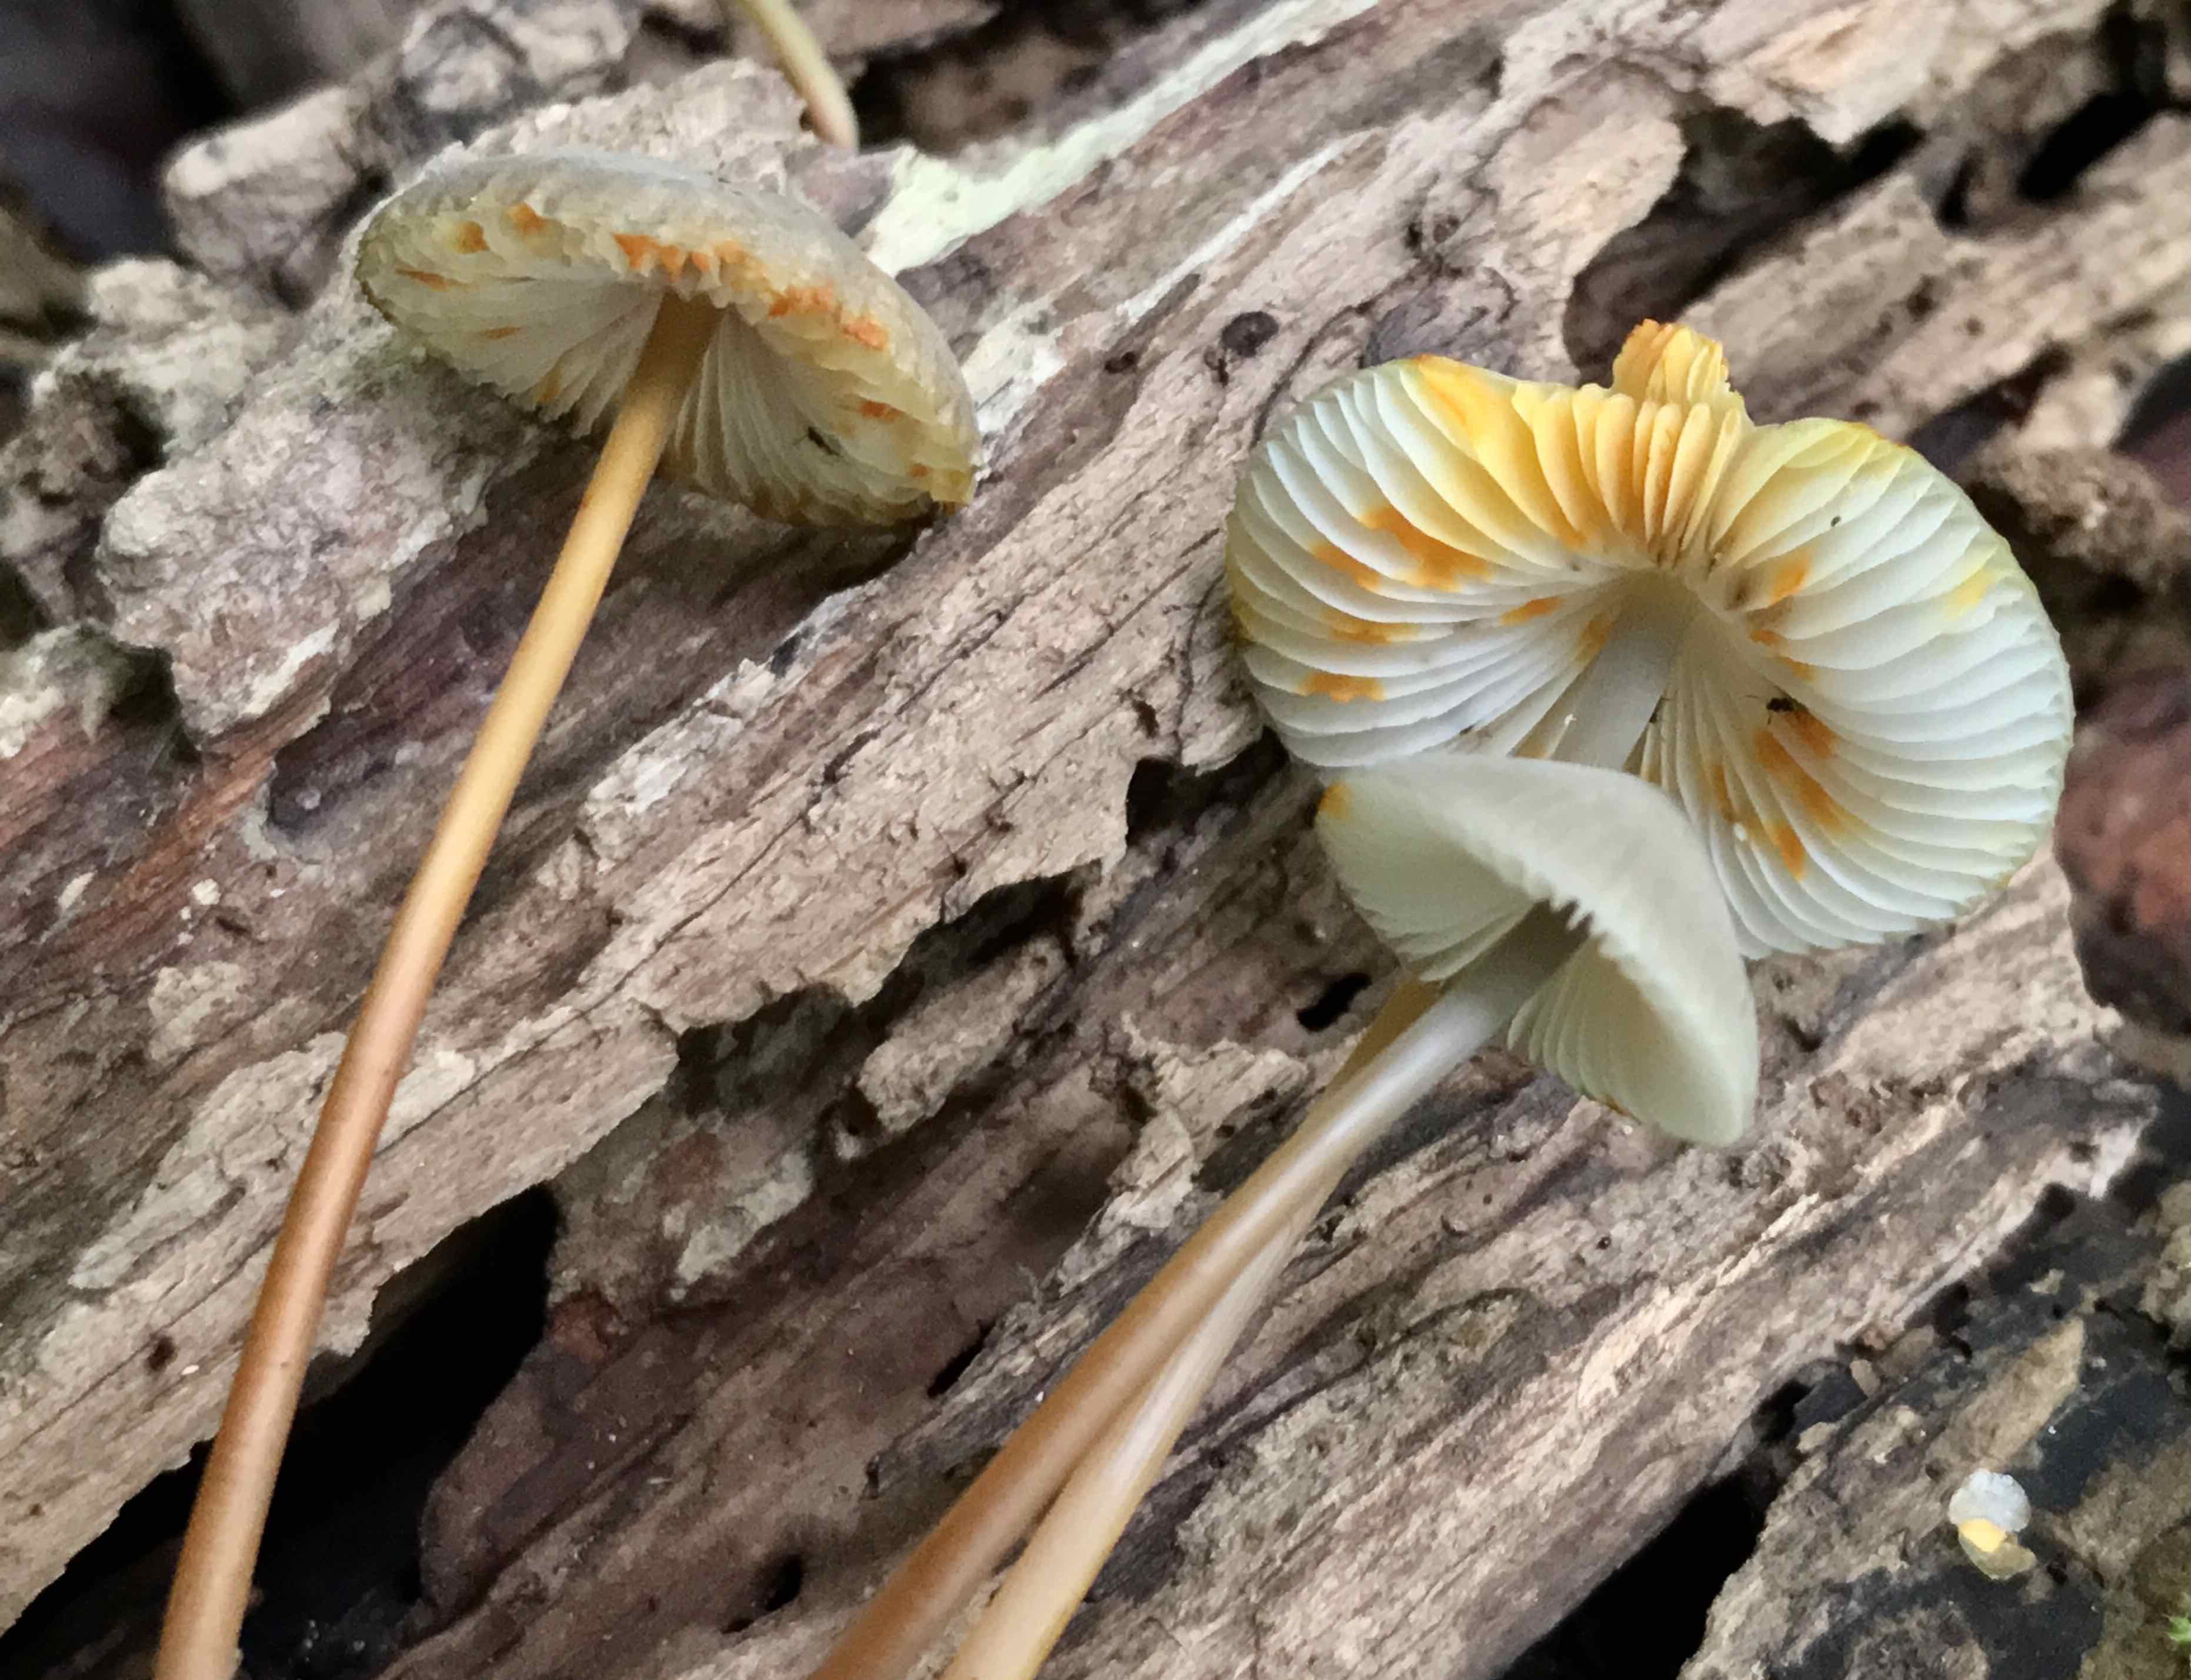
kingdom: Fungi
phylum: Basidiomycota
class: Agaricomycetes
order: Agaricales
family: Mycenaceae
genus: Mycena
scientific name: Mycena crocata
